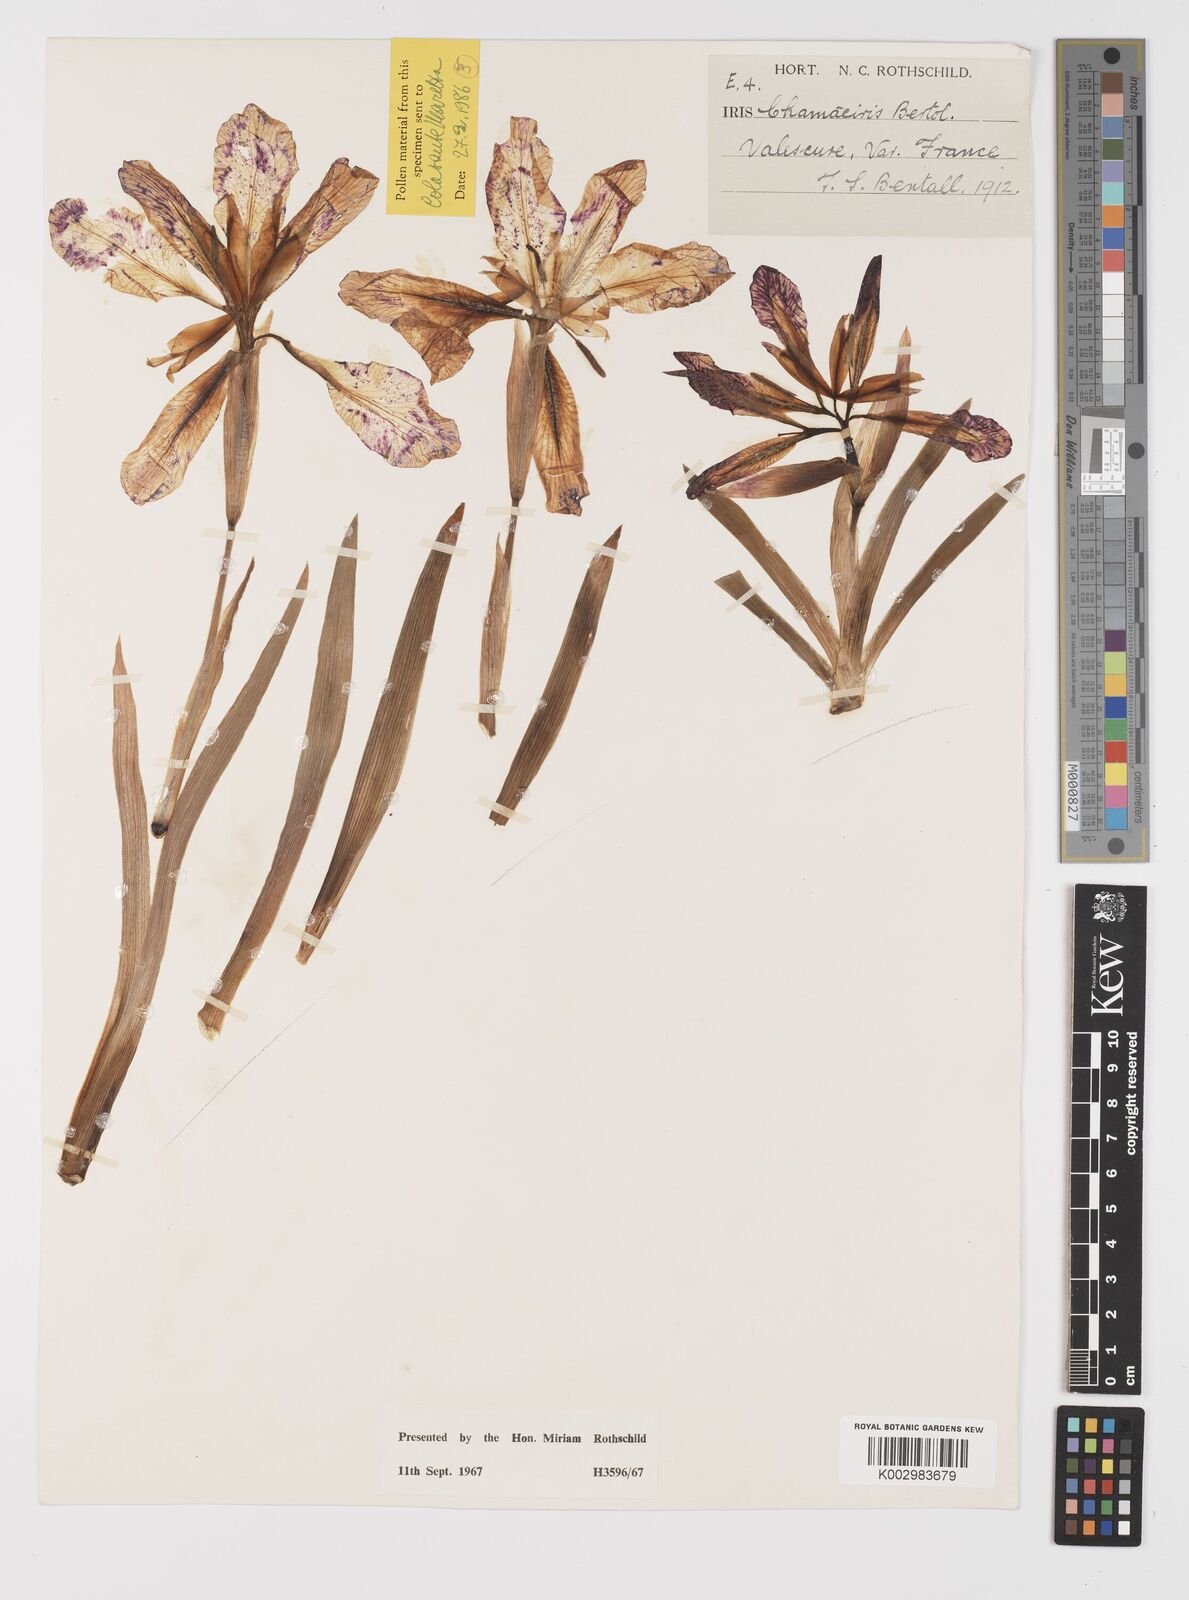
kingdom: Plantae
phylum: Tracheophyta
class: Liliopsida
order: Asparagales
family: Iridaceae
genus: Iris
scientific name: Iris lutescens
